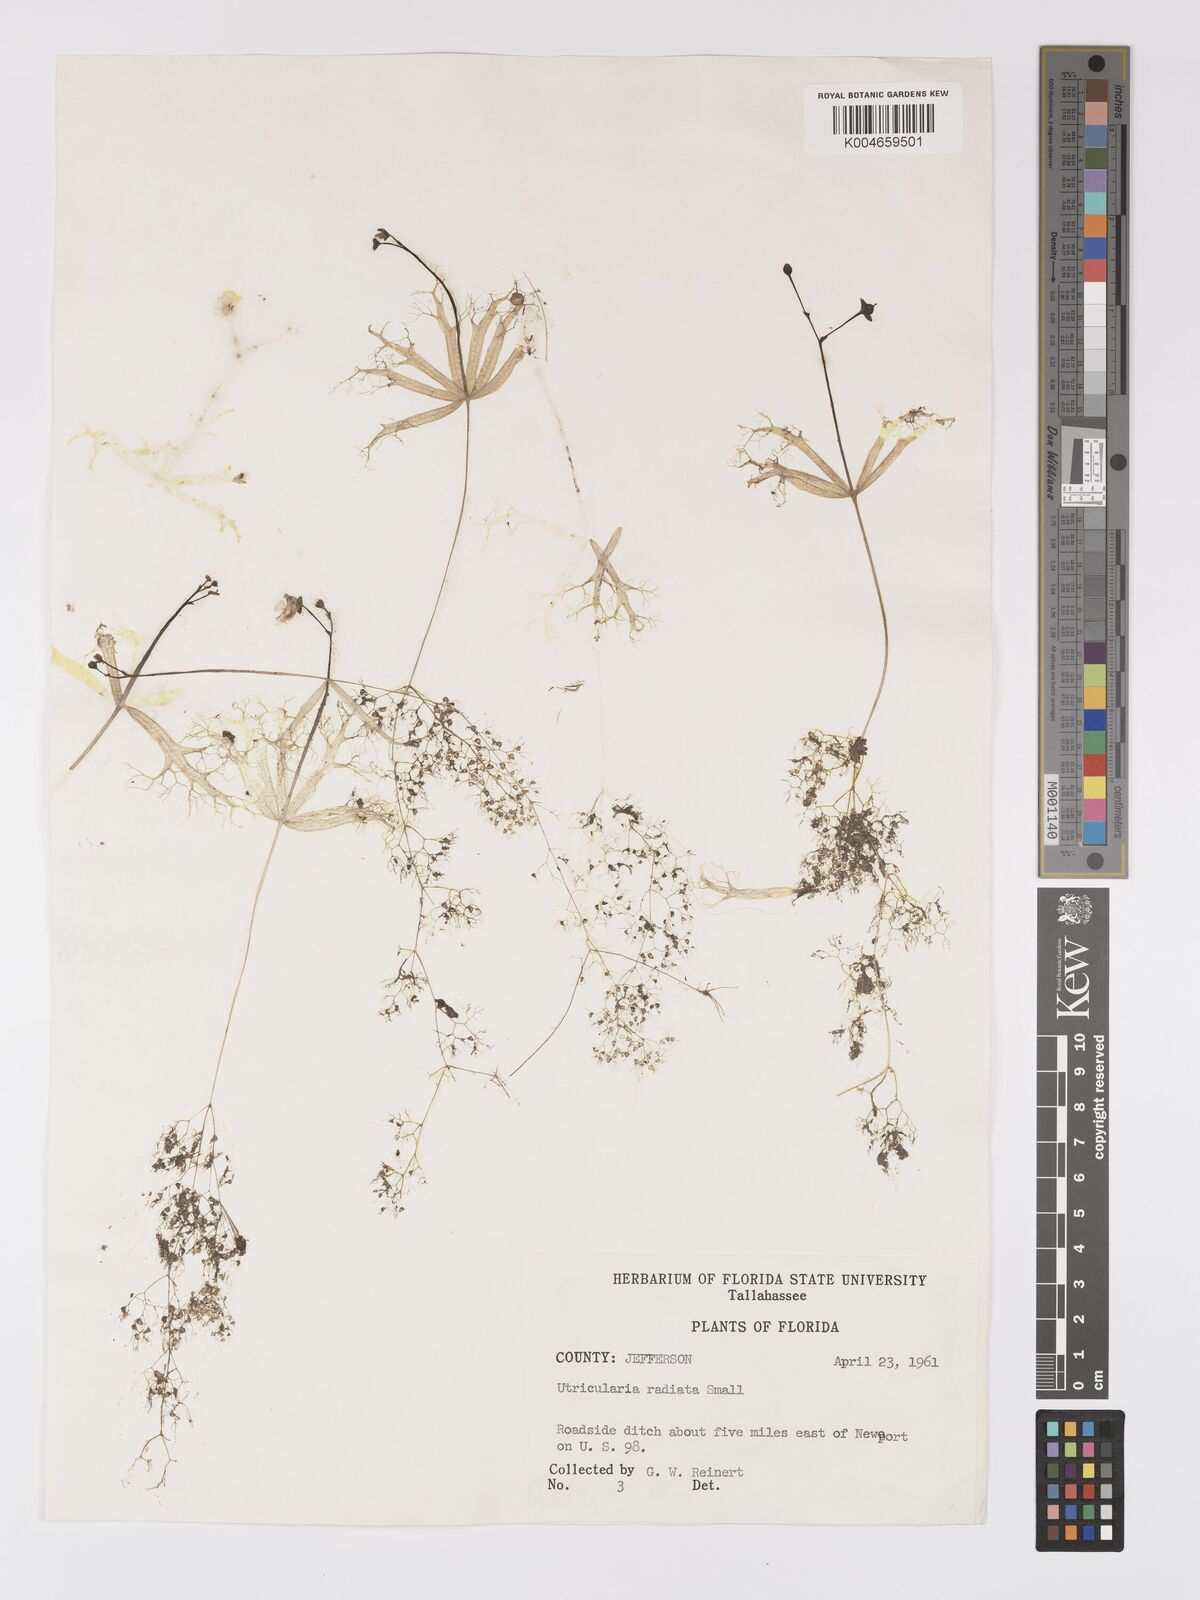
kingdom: Plantae
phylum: Tracheophyta
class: Magnoliopsida
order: Lamiales
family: Lentibulariaceae
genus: Utricularia
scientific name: Utricularia radiata
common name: Floating bladderwort
